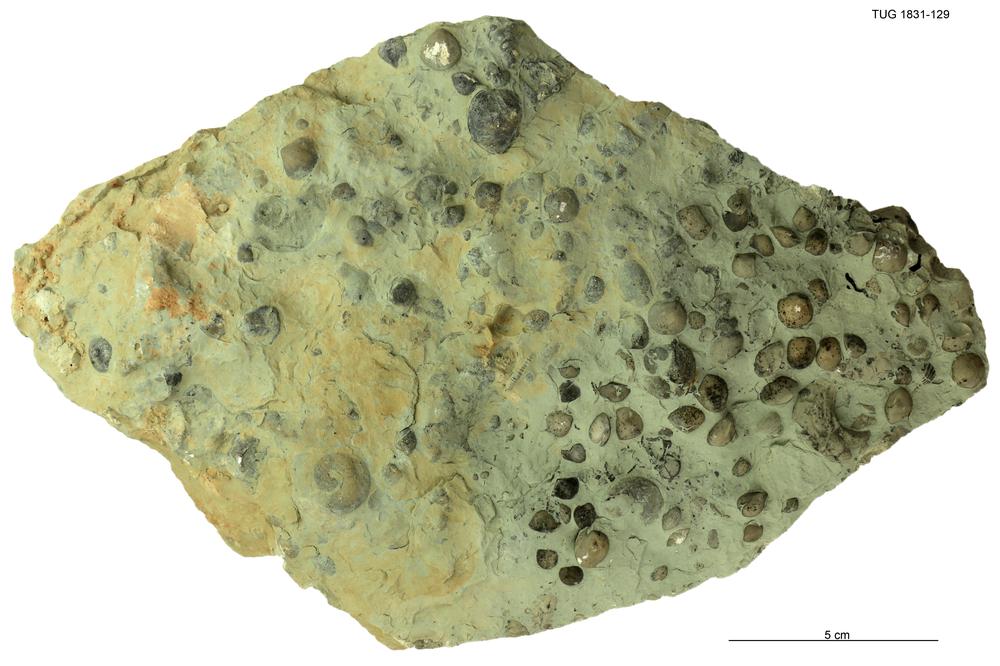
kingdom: Animalia
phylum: Brachiopoda
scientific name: Brachiopoda
